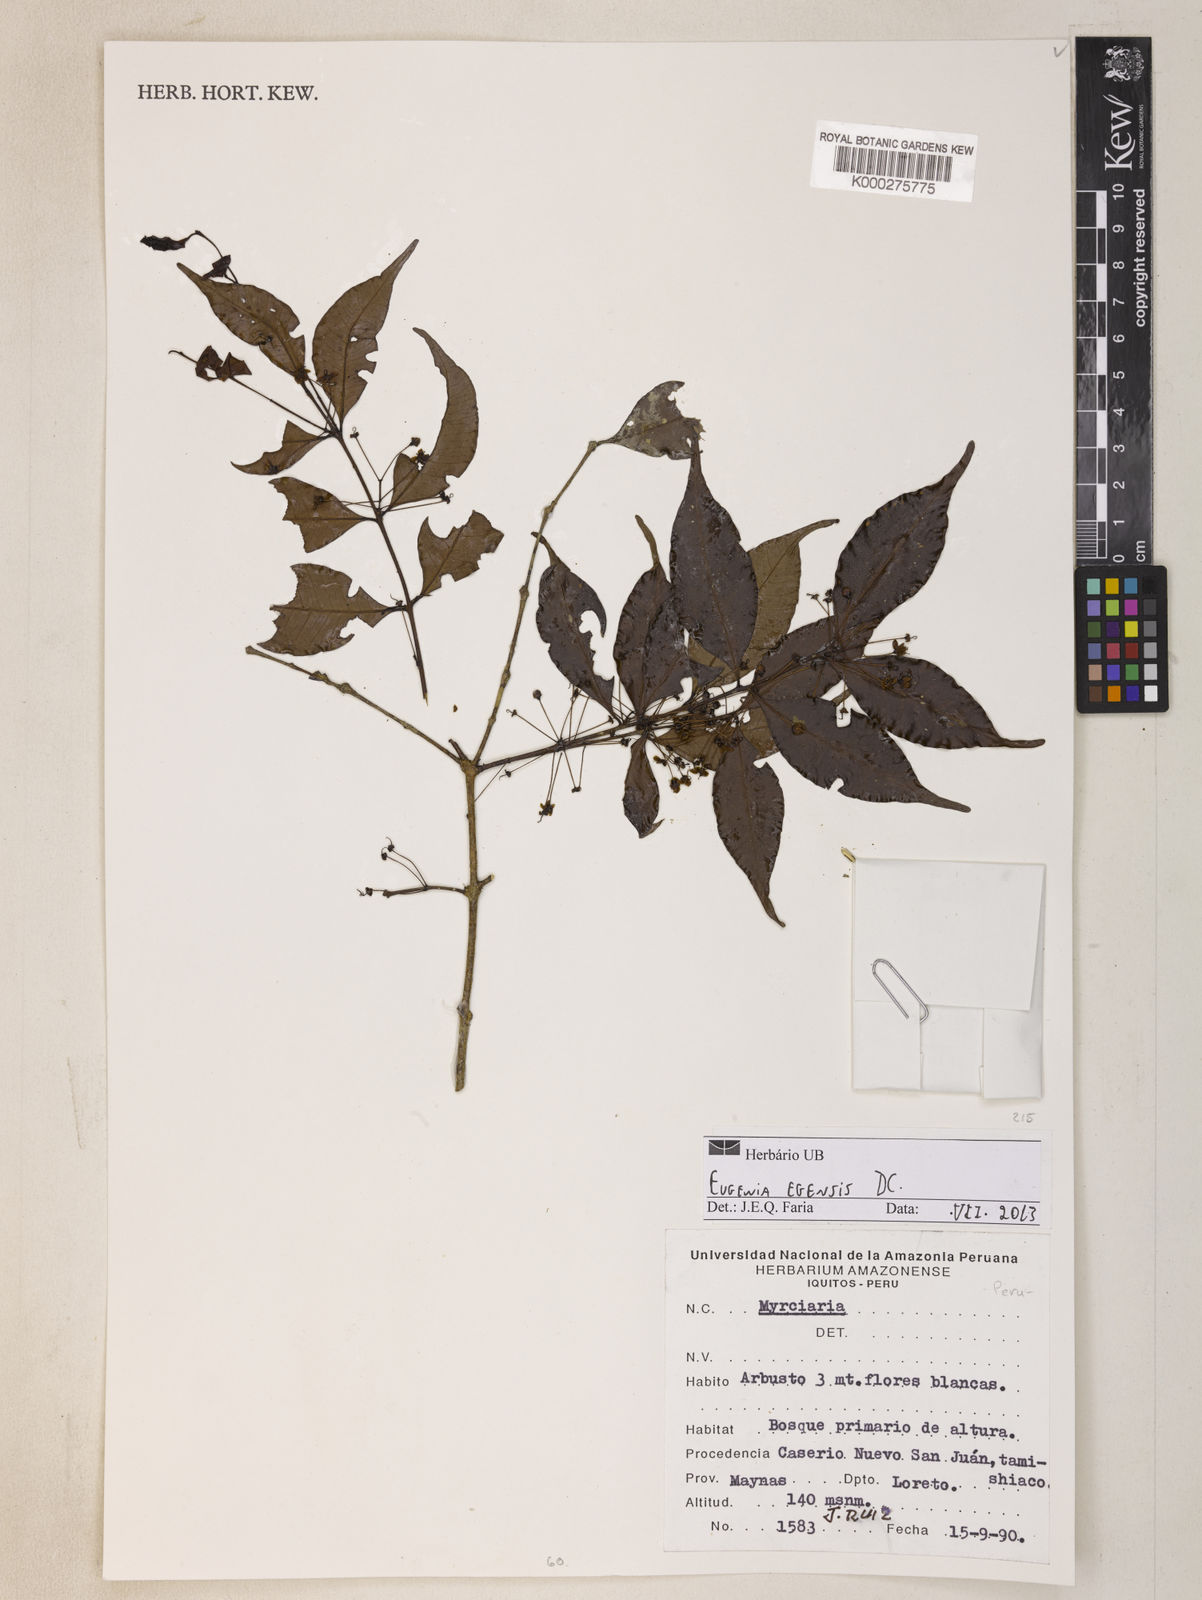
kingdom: Plantae
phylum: Tracheophyta
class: Magnoliopsida
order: Myrtales
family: Myrtaceae
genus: Eugenia
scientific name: Eugenia egensis
